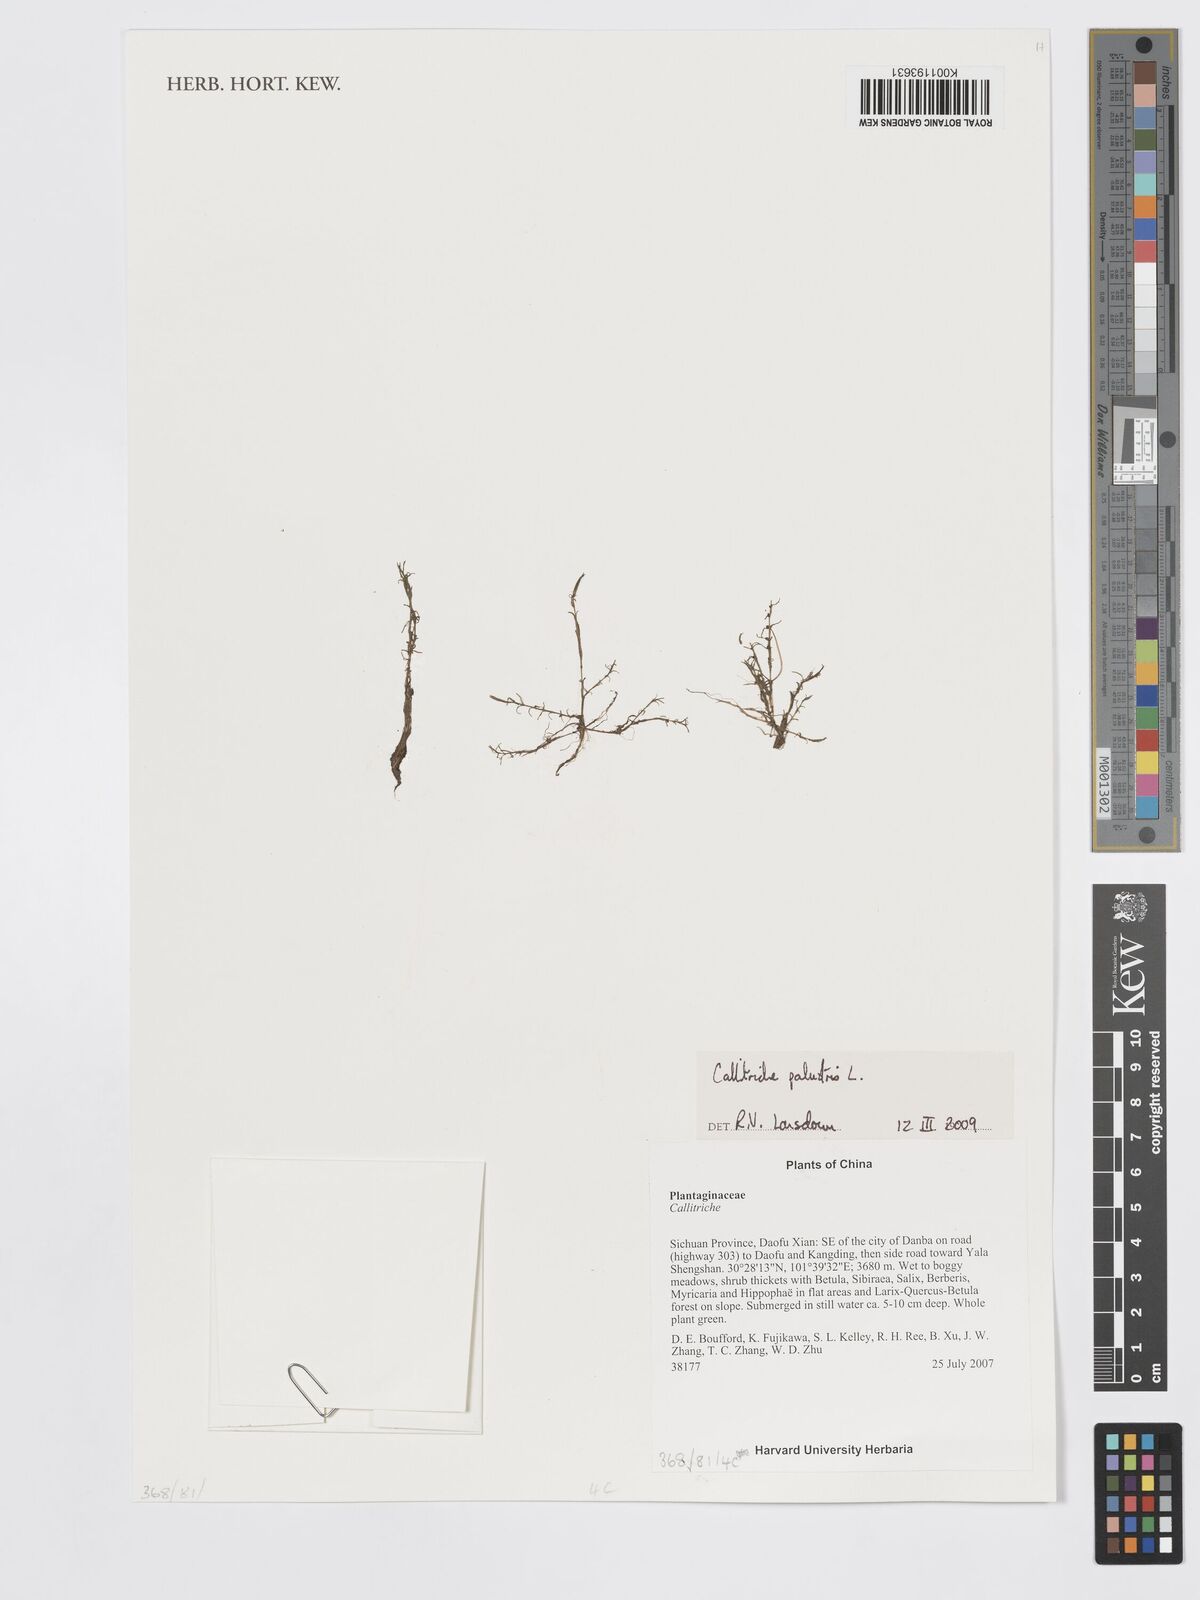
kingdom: Plantae
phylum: Tracheophyta
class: Magnoliopsida
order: Lamiales
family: Plantaginaceae
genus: Callitriche
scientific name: Callitriche palustris
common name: Spring water-starwort
